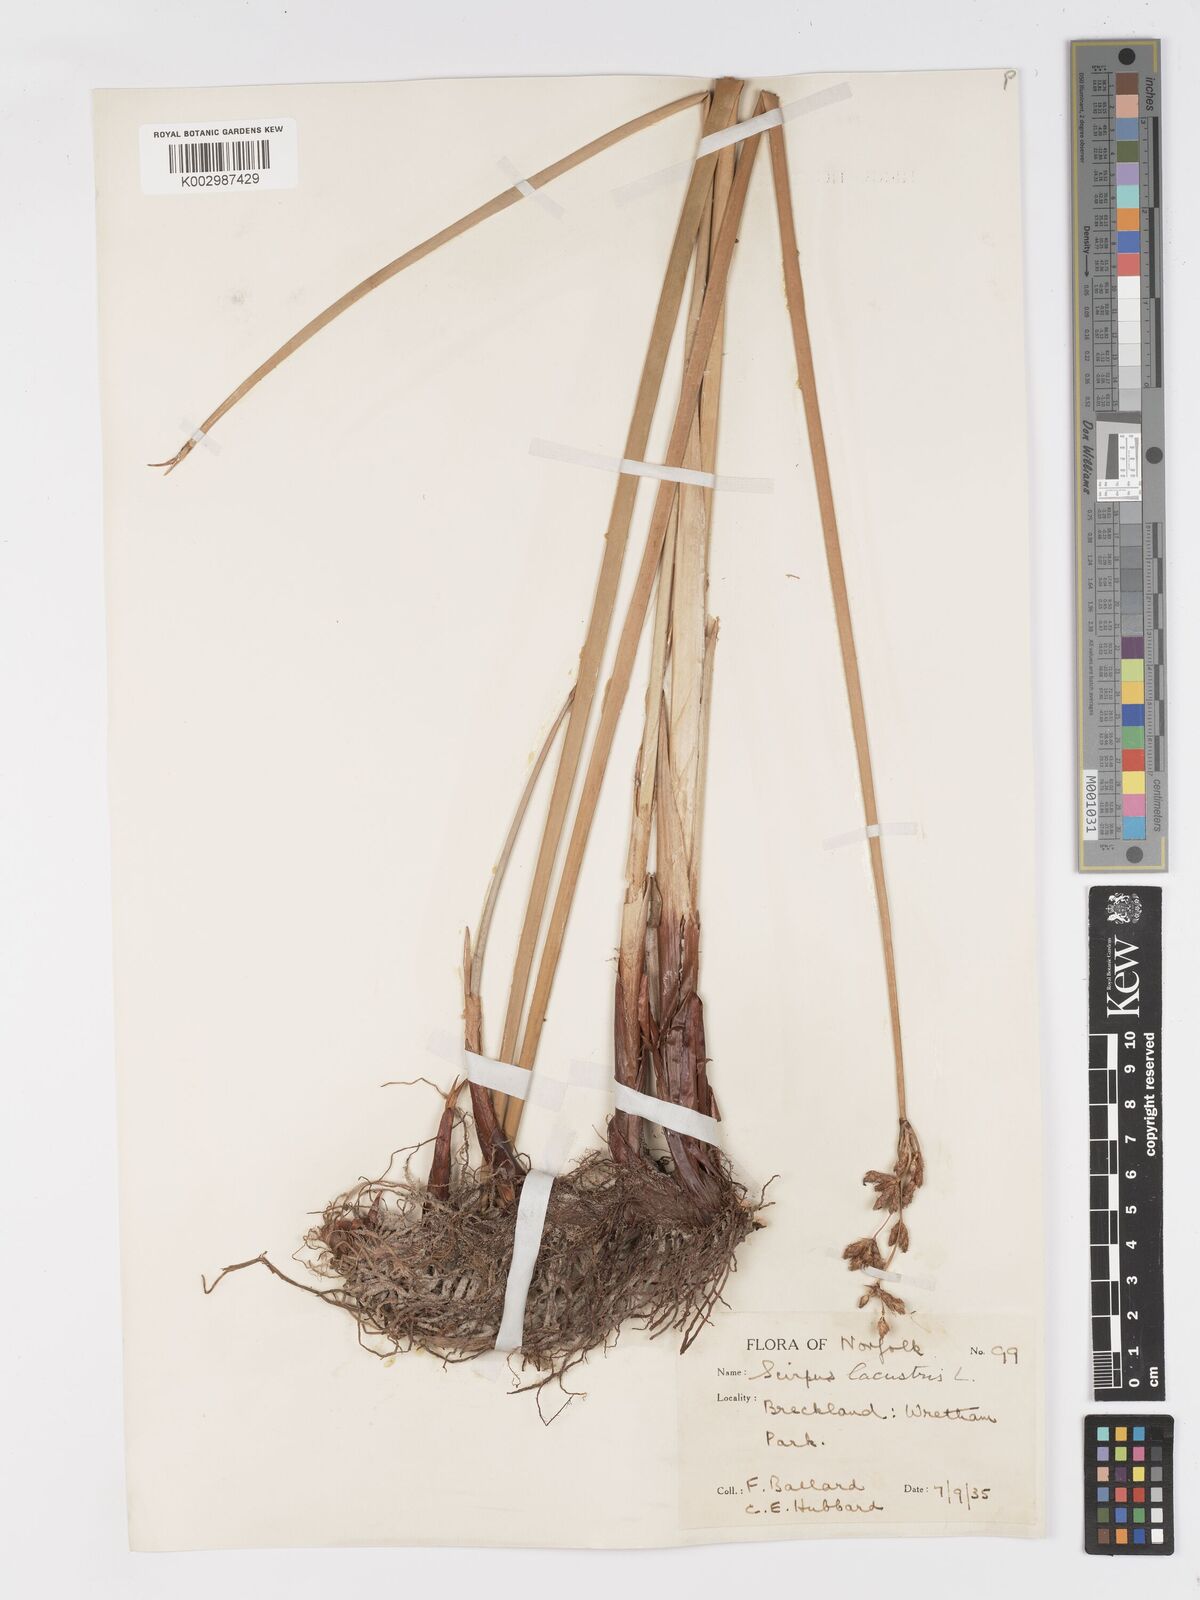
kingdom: Plantae
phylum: Tracheophyta
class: Liliopsida
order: Poales
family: Cyperaceae
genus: Schoenoplectus
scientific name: Schoenoplectus lacustris
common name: Common club-rush
